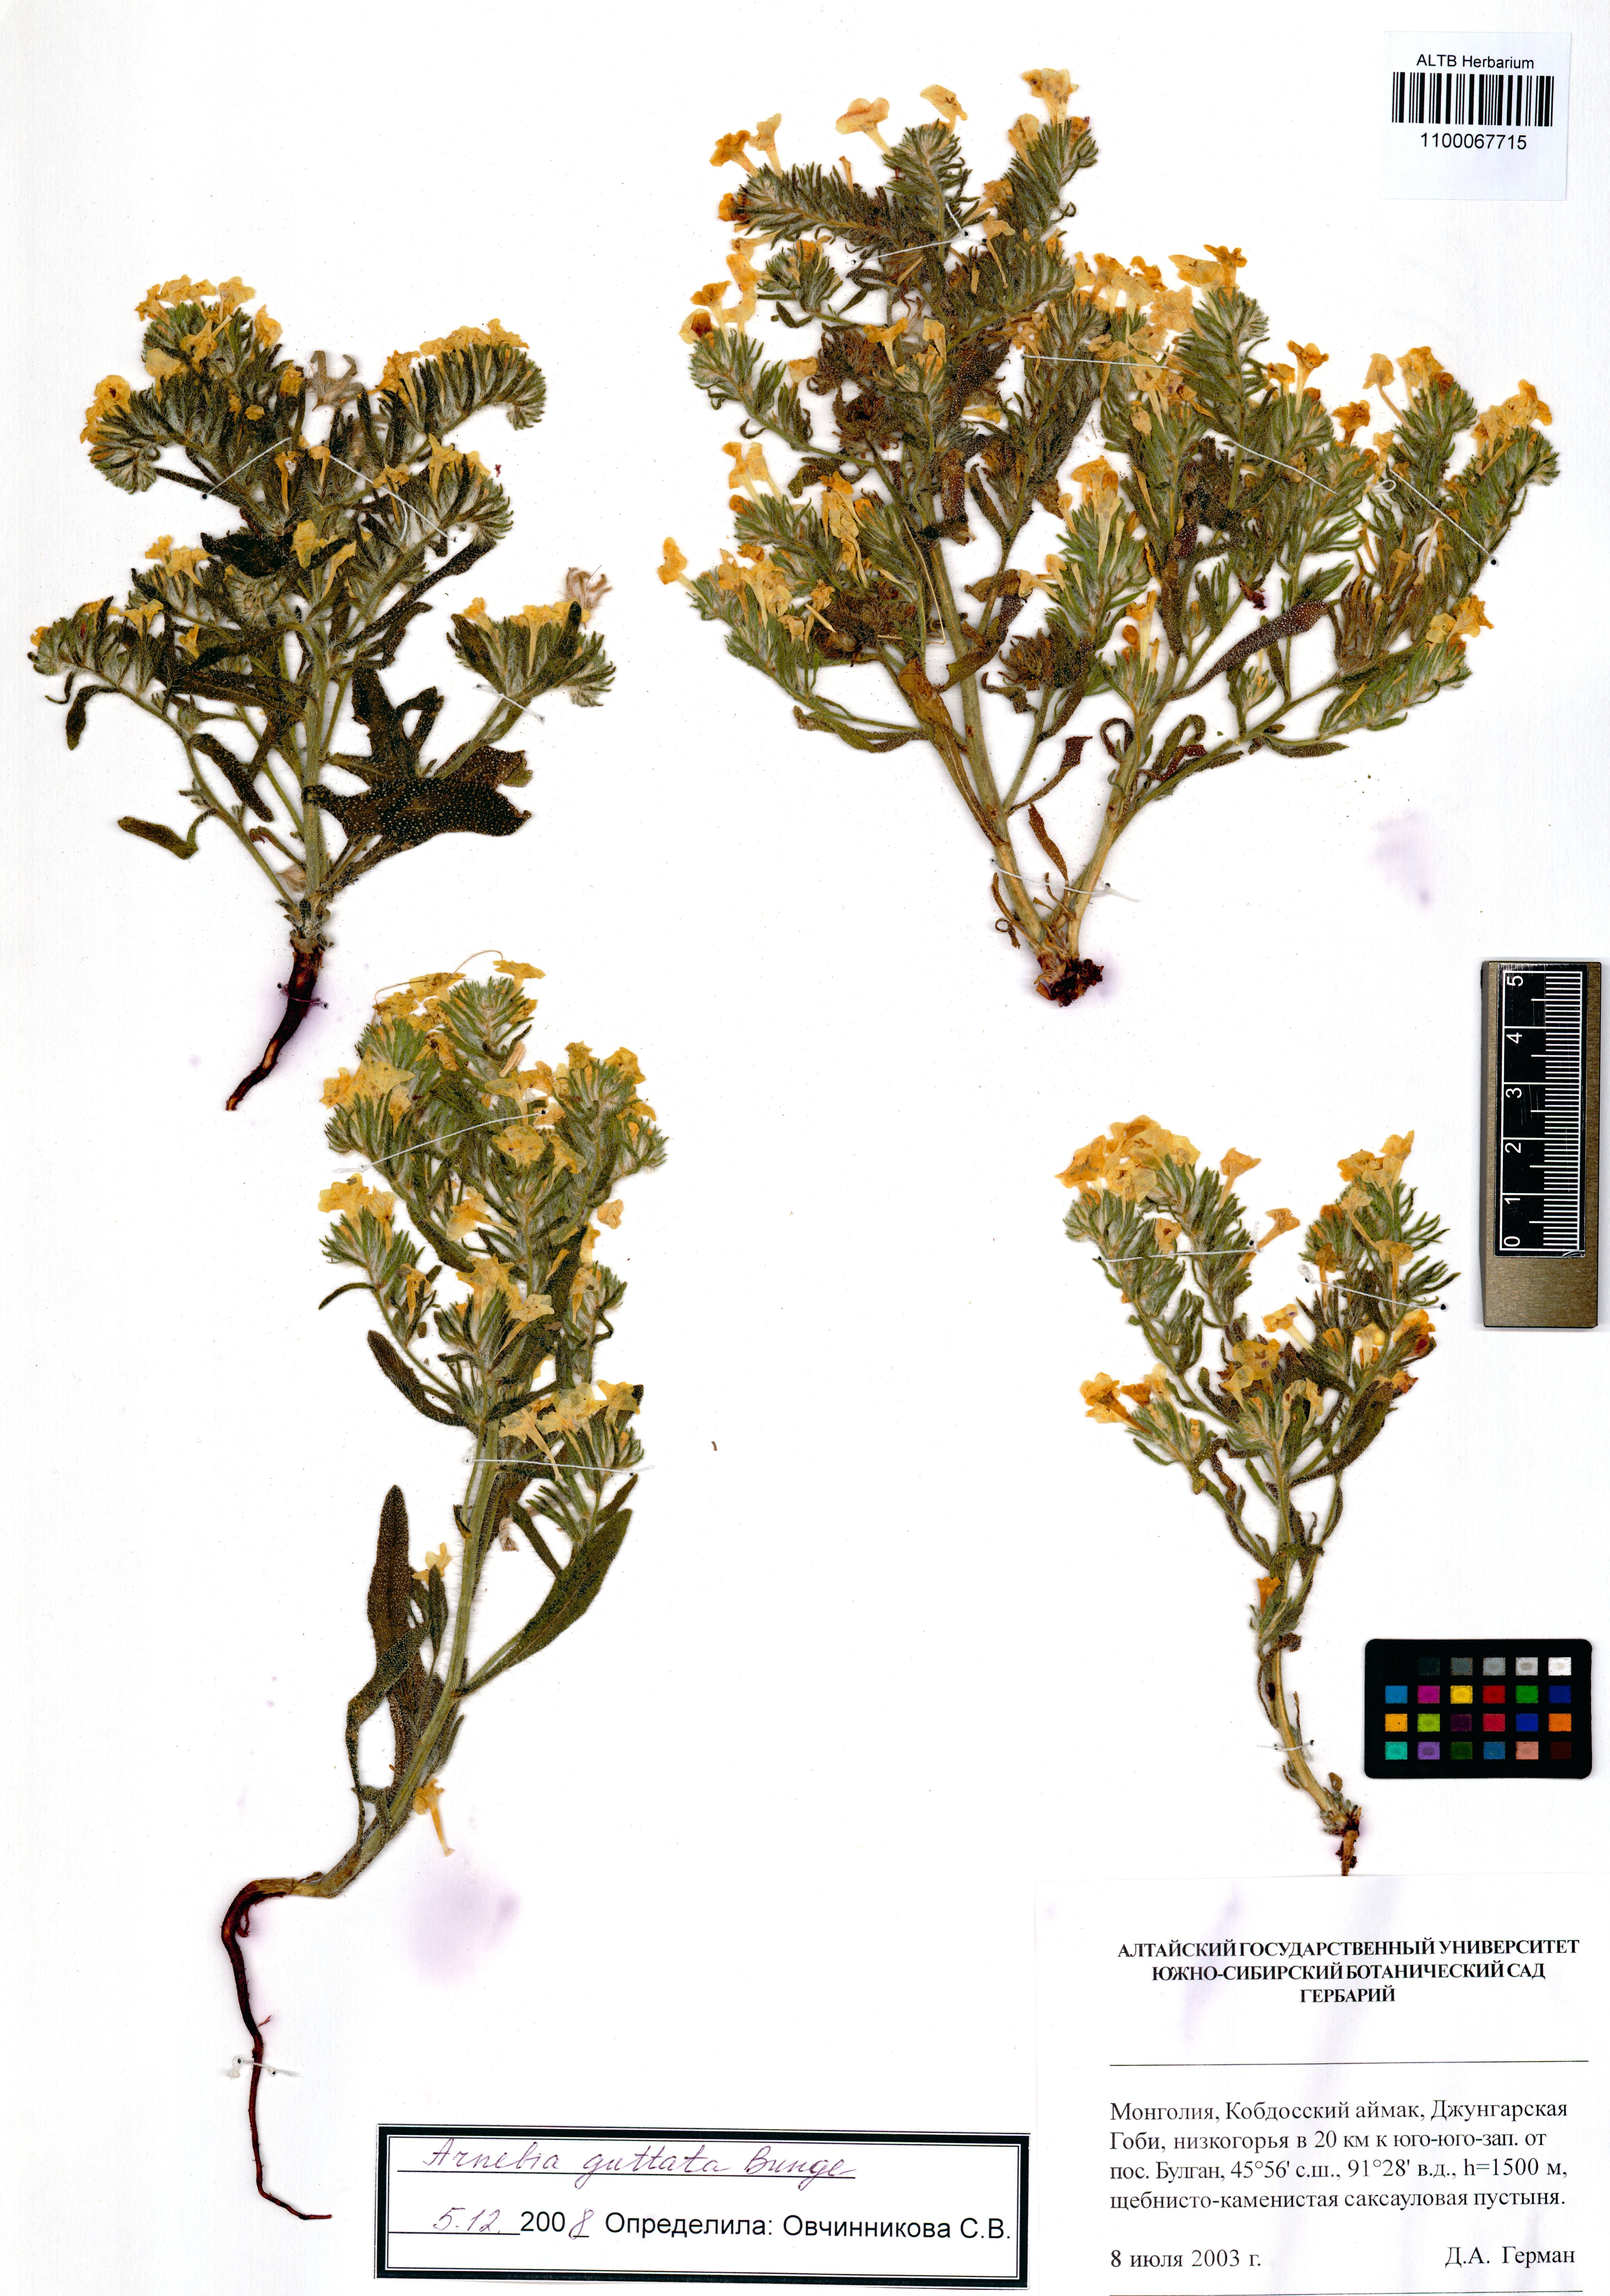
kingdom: Plantae
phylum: Tracheophyta
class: Magnoliopsida
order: Boraginales
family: Boraginaceae
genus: Arnebia
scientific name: Arnebia guttata
